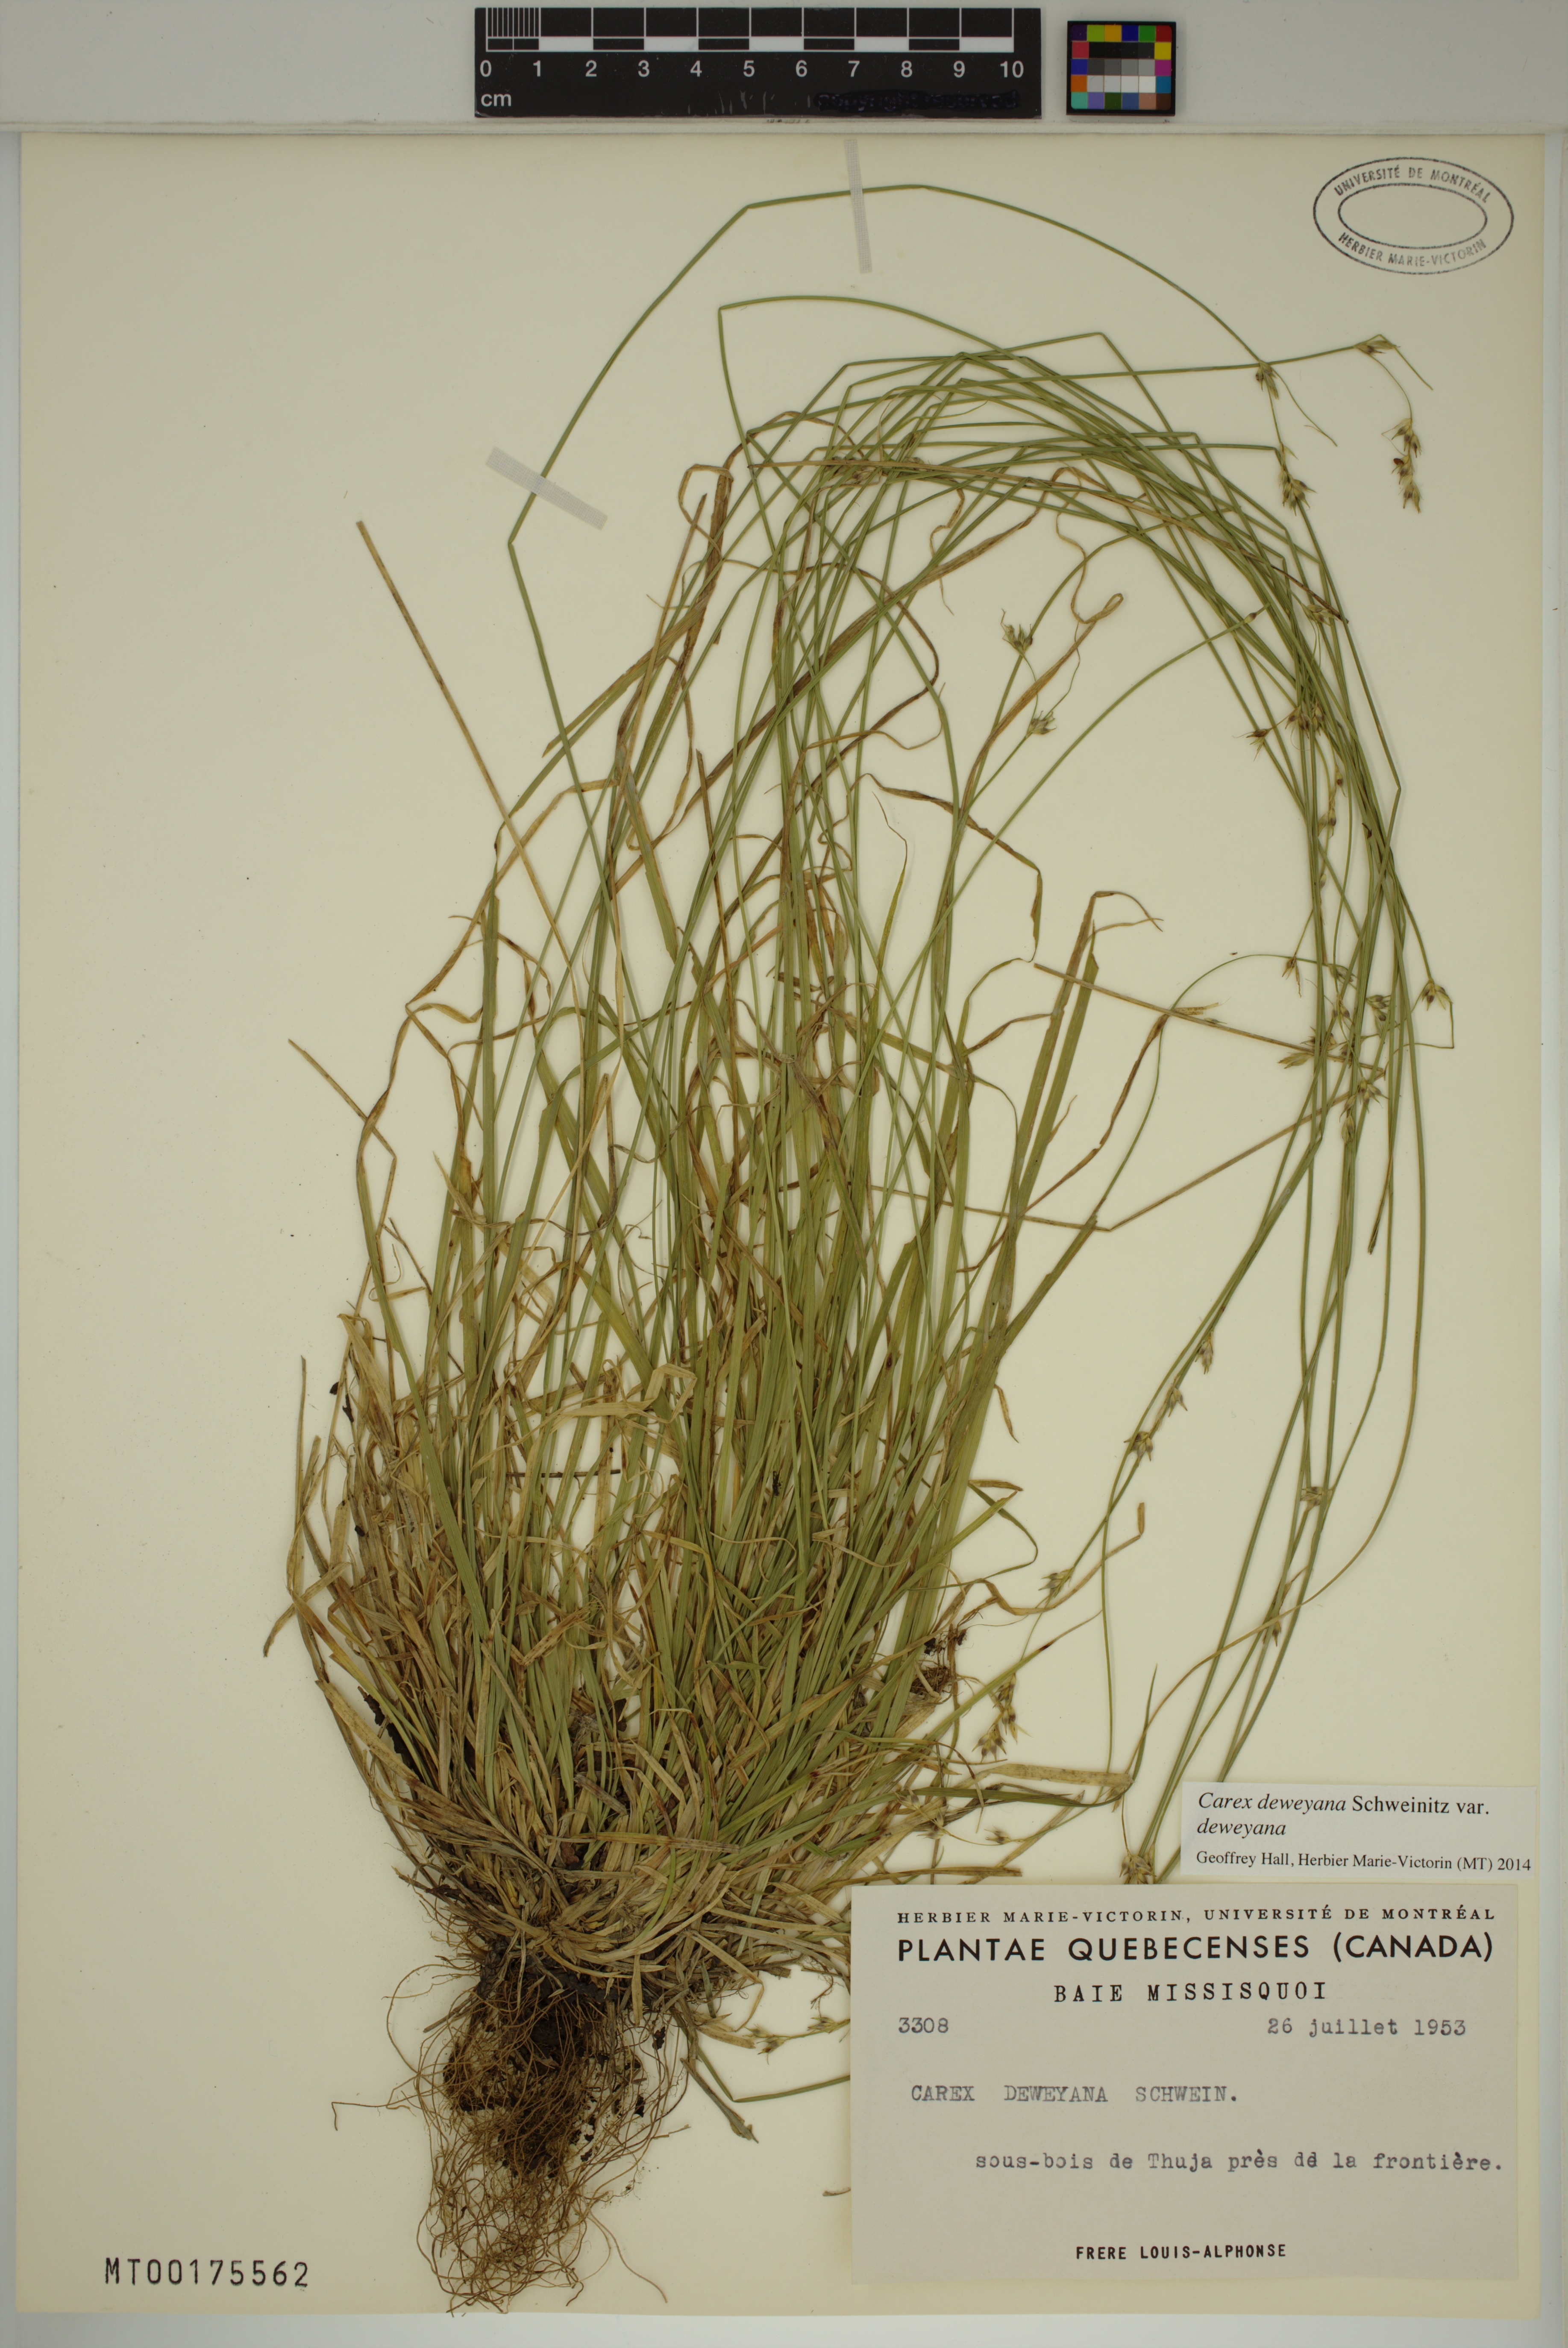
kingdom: Plantae
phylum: Tracheophyta
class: Liliopsida
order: Poales
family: Cyperaceae
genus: Carex
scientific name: Carex deweyana
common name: Dewey's sedge
